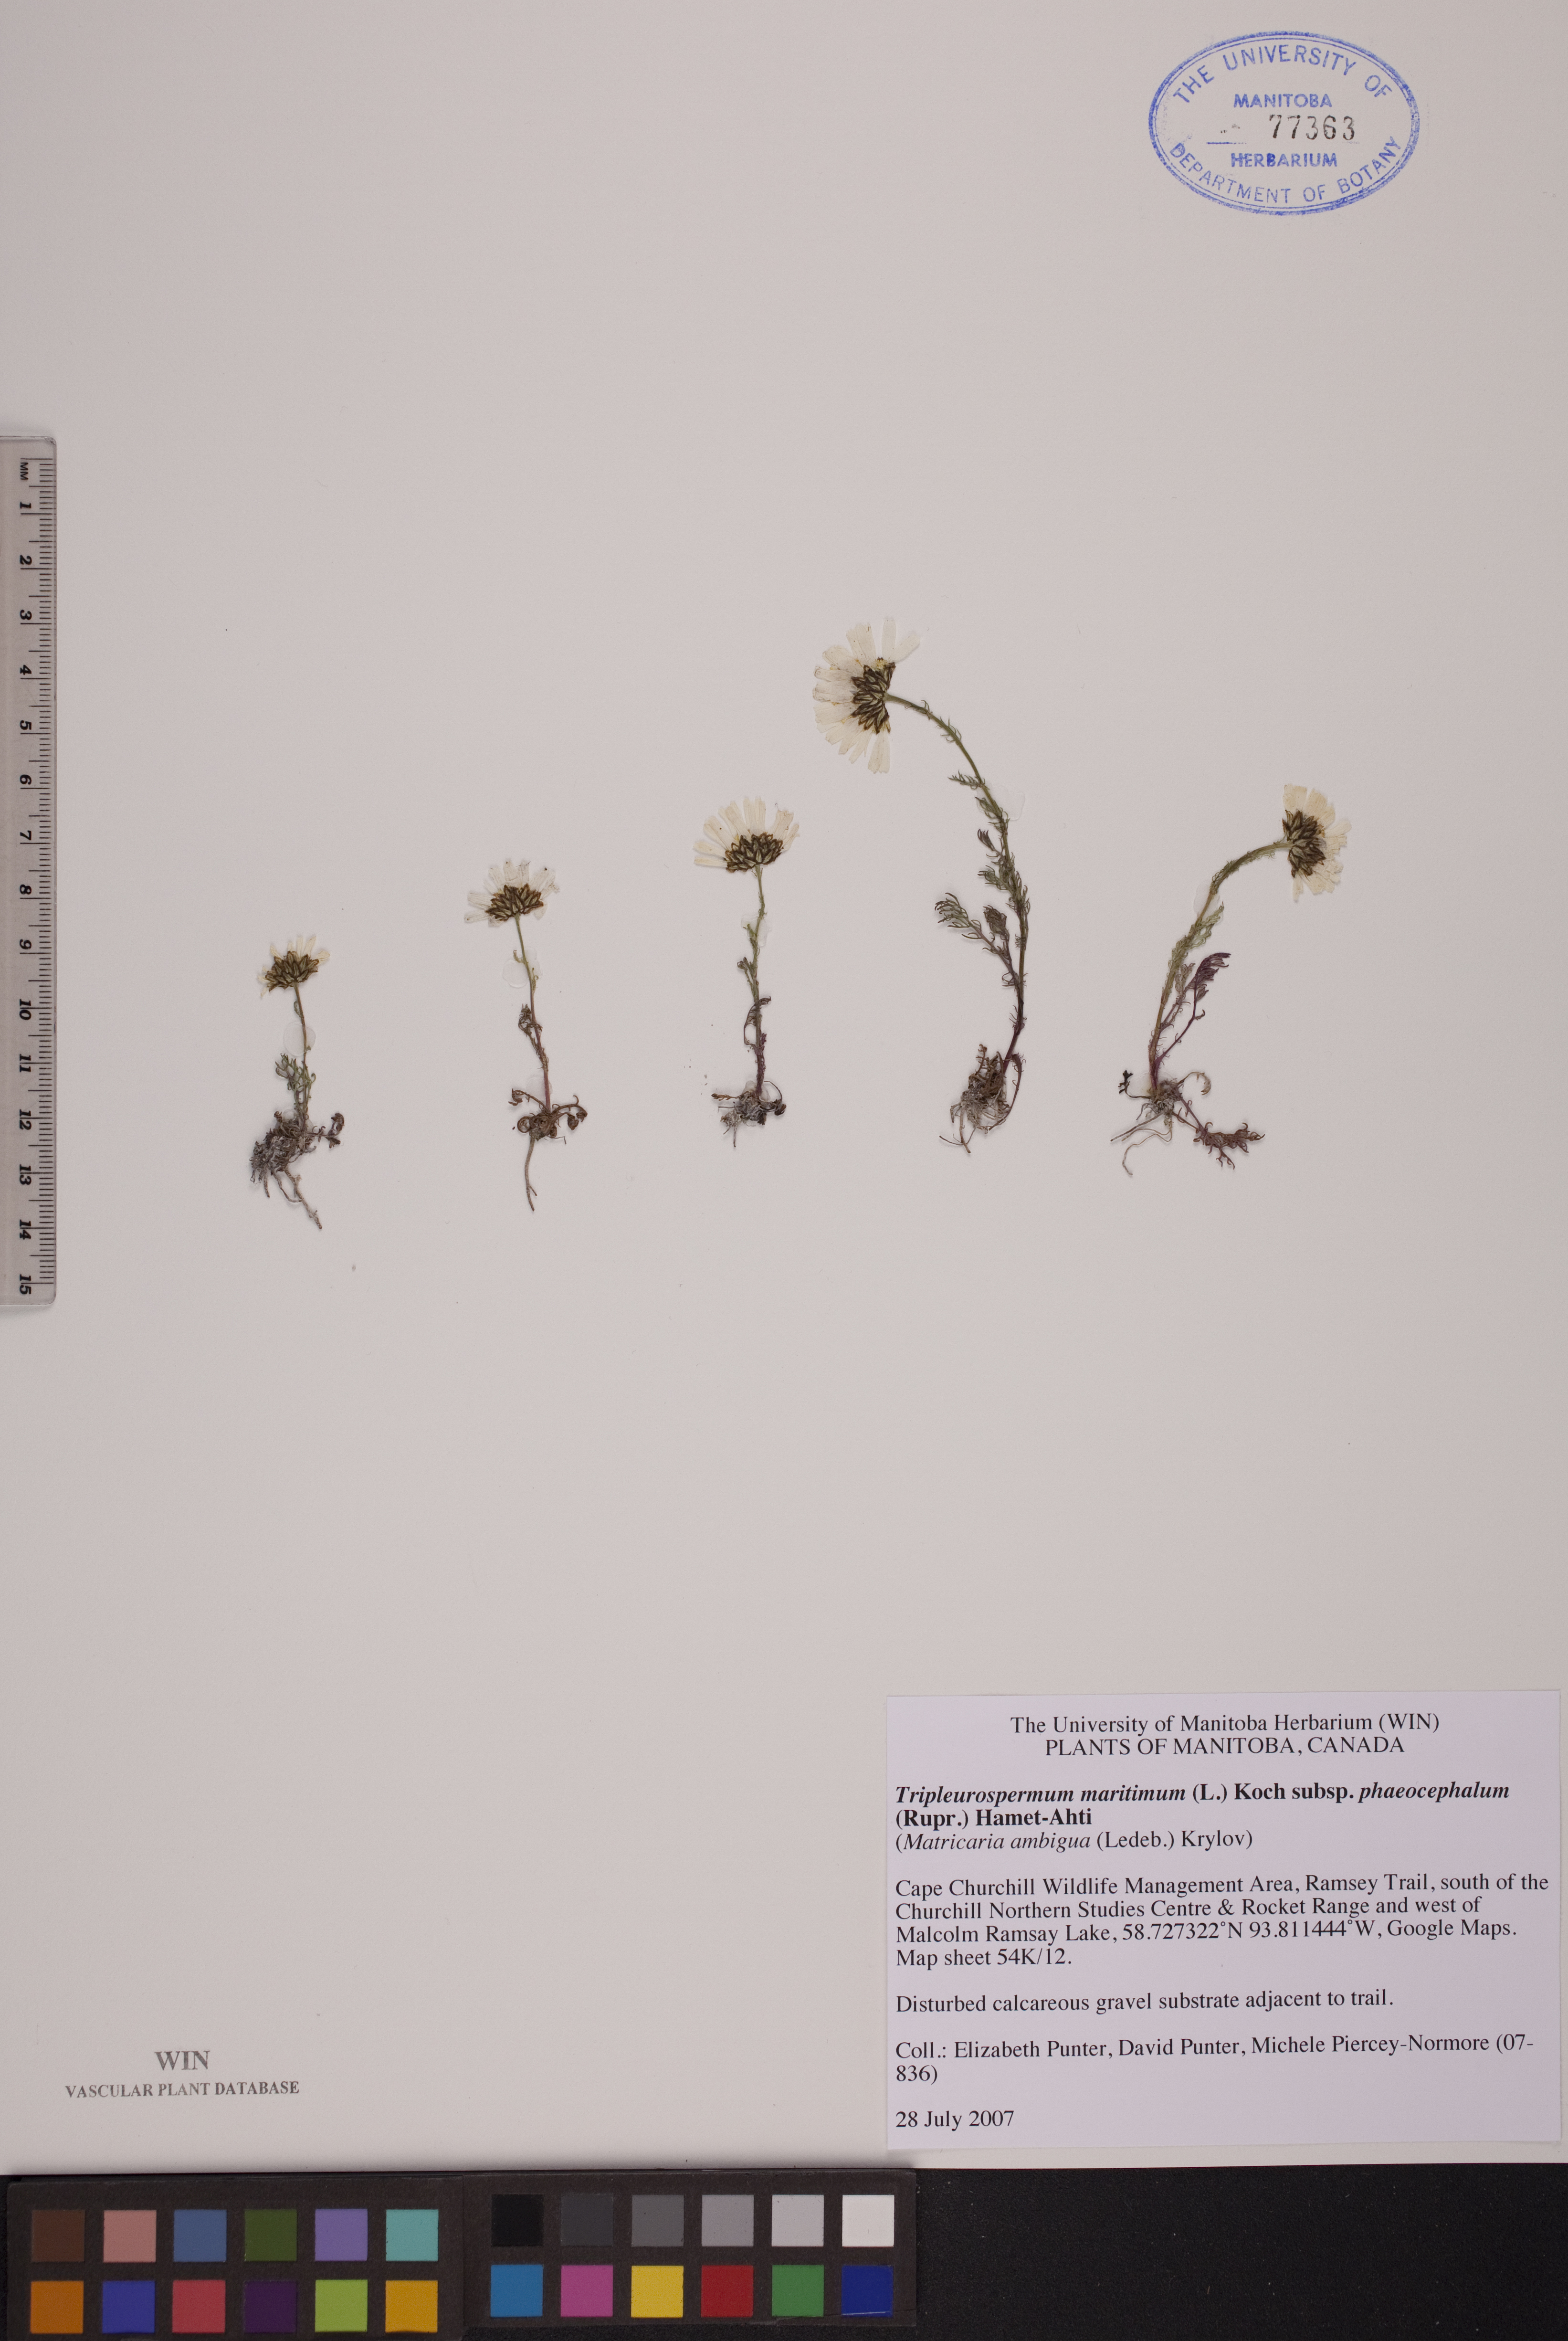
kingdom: Plantae
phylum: Tracheophyta
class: Magnoliopsida
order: Asterales
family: Asteraceae
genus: Tripleurospermum
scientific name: Tripleurospermum hookeri
